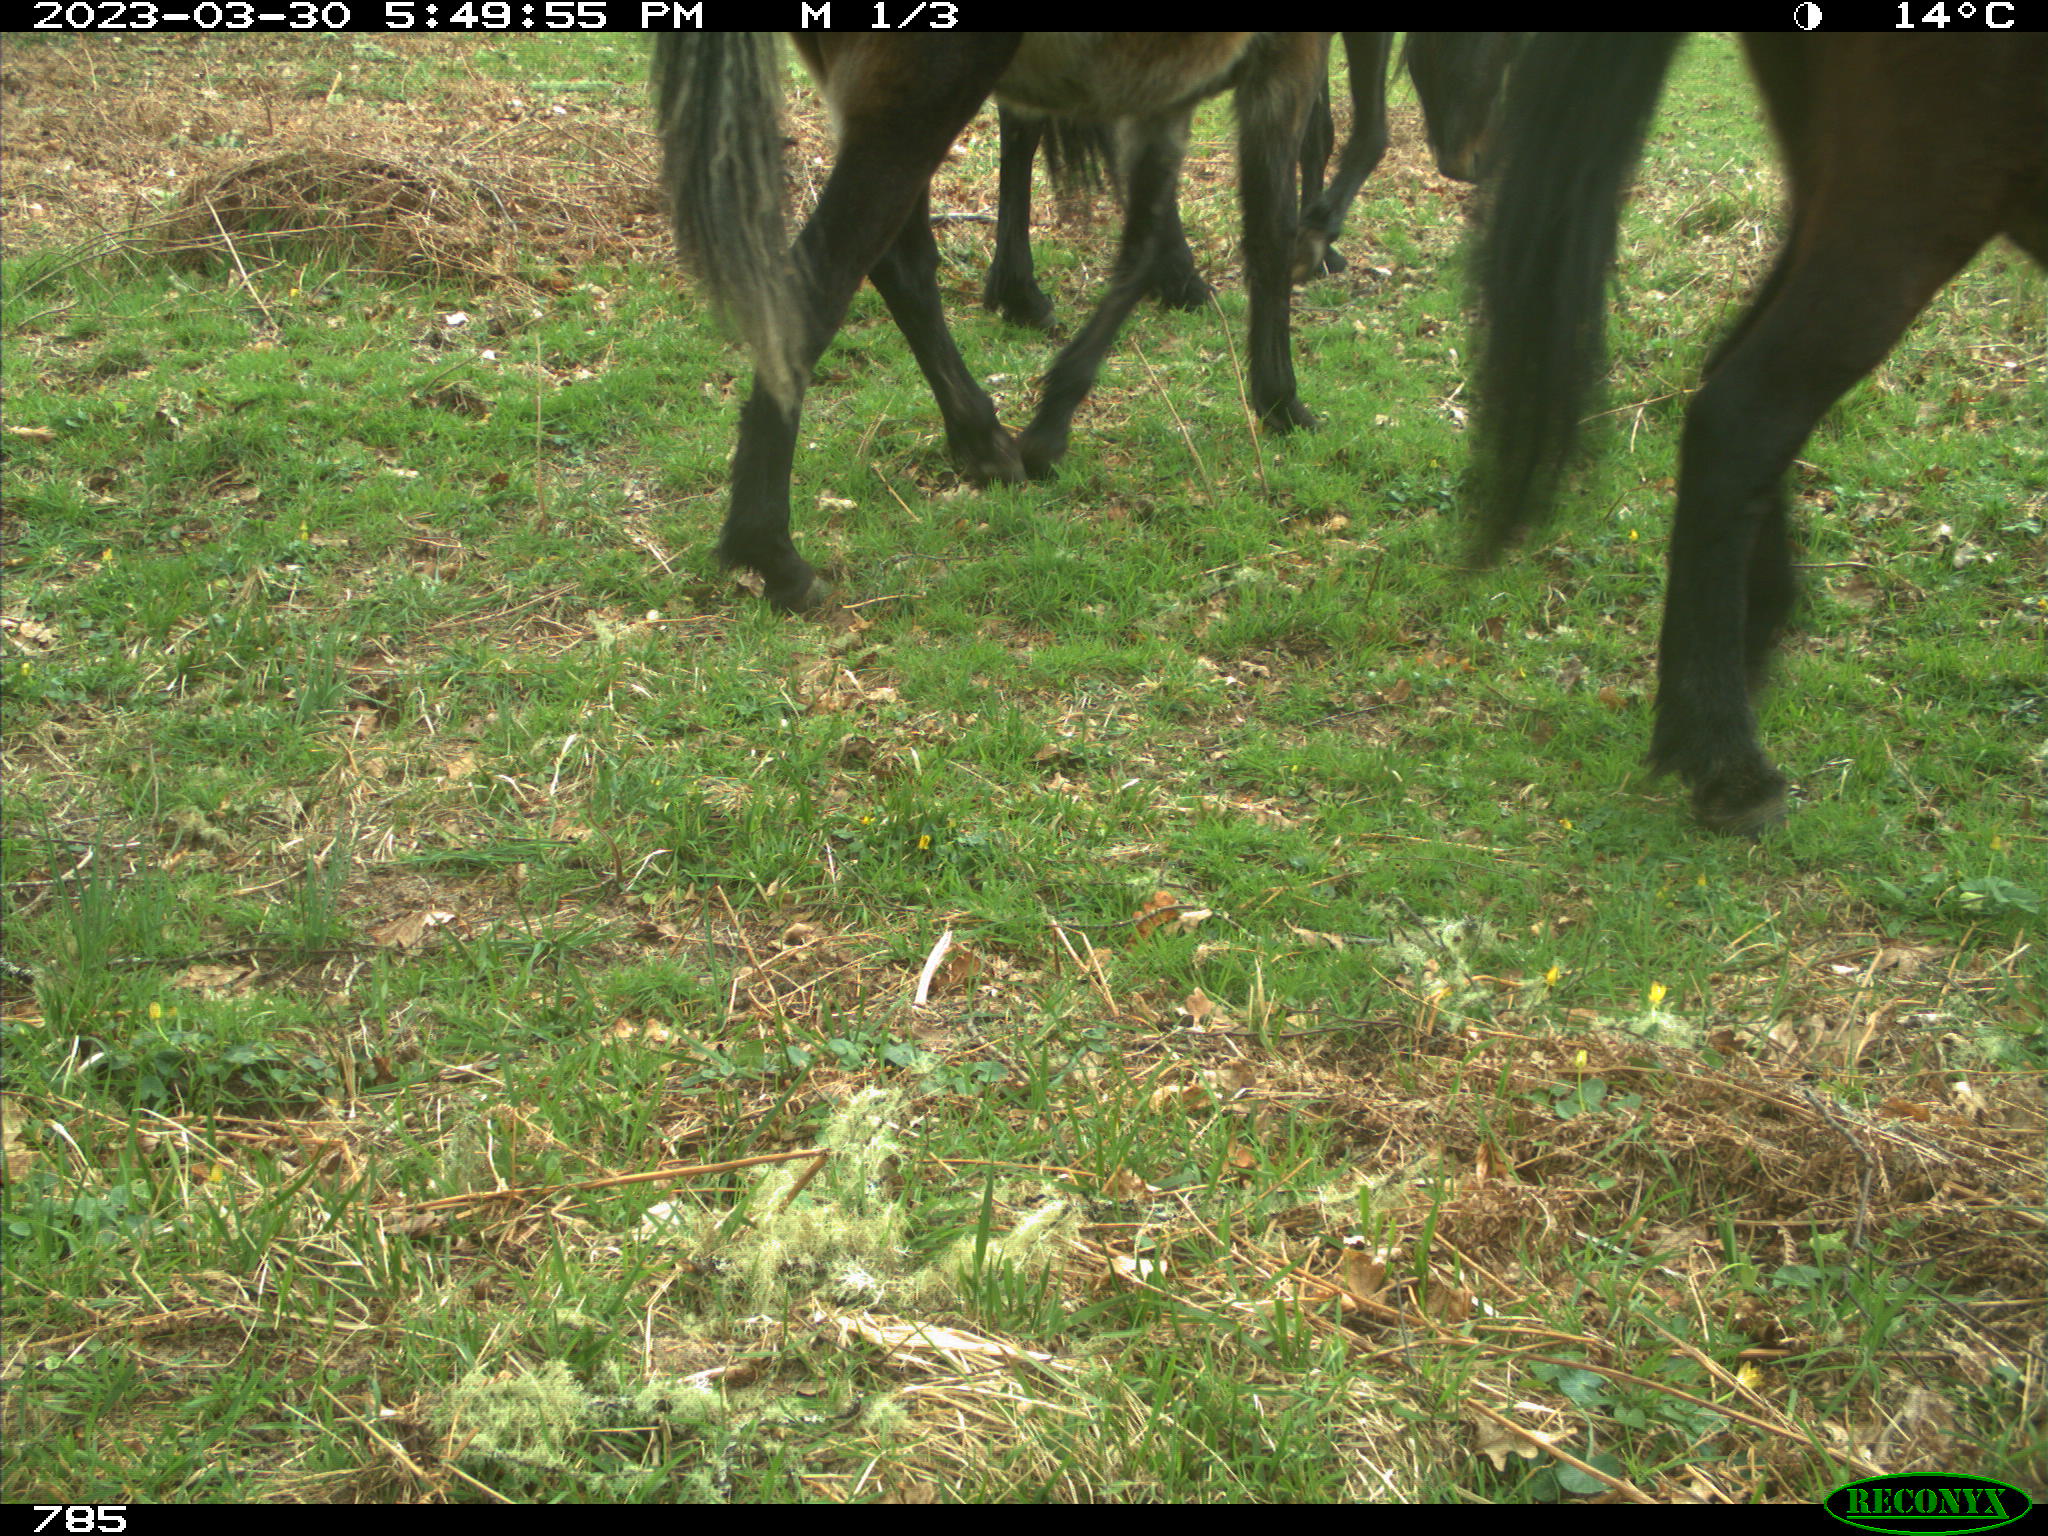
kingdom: Animalia
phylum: Chordata
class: Mammalia
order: Perissodactyla
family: Equidae
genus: Equus
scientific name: Equus caballus
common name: Horse
